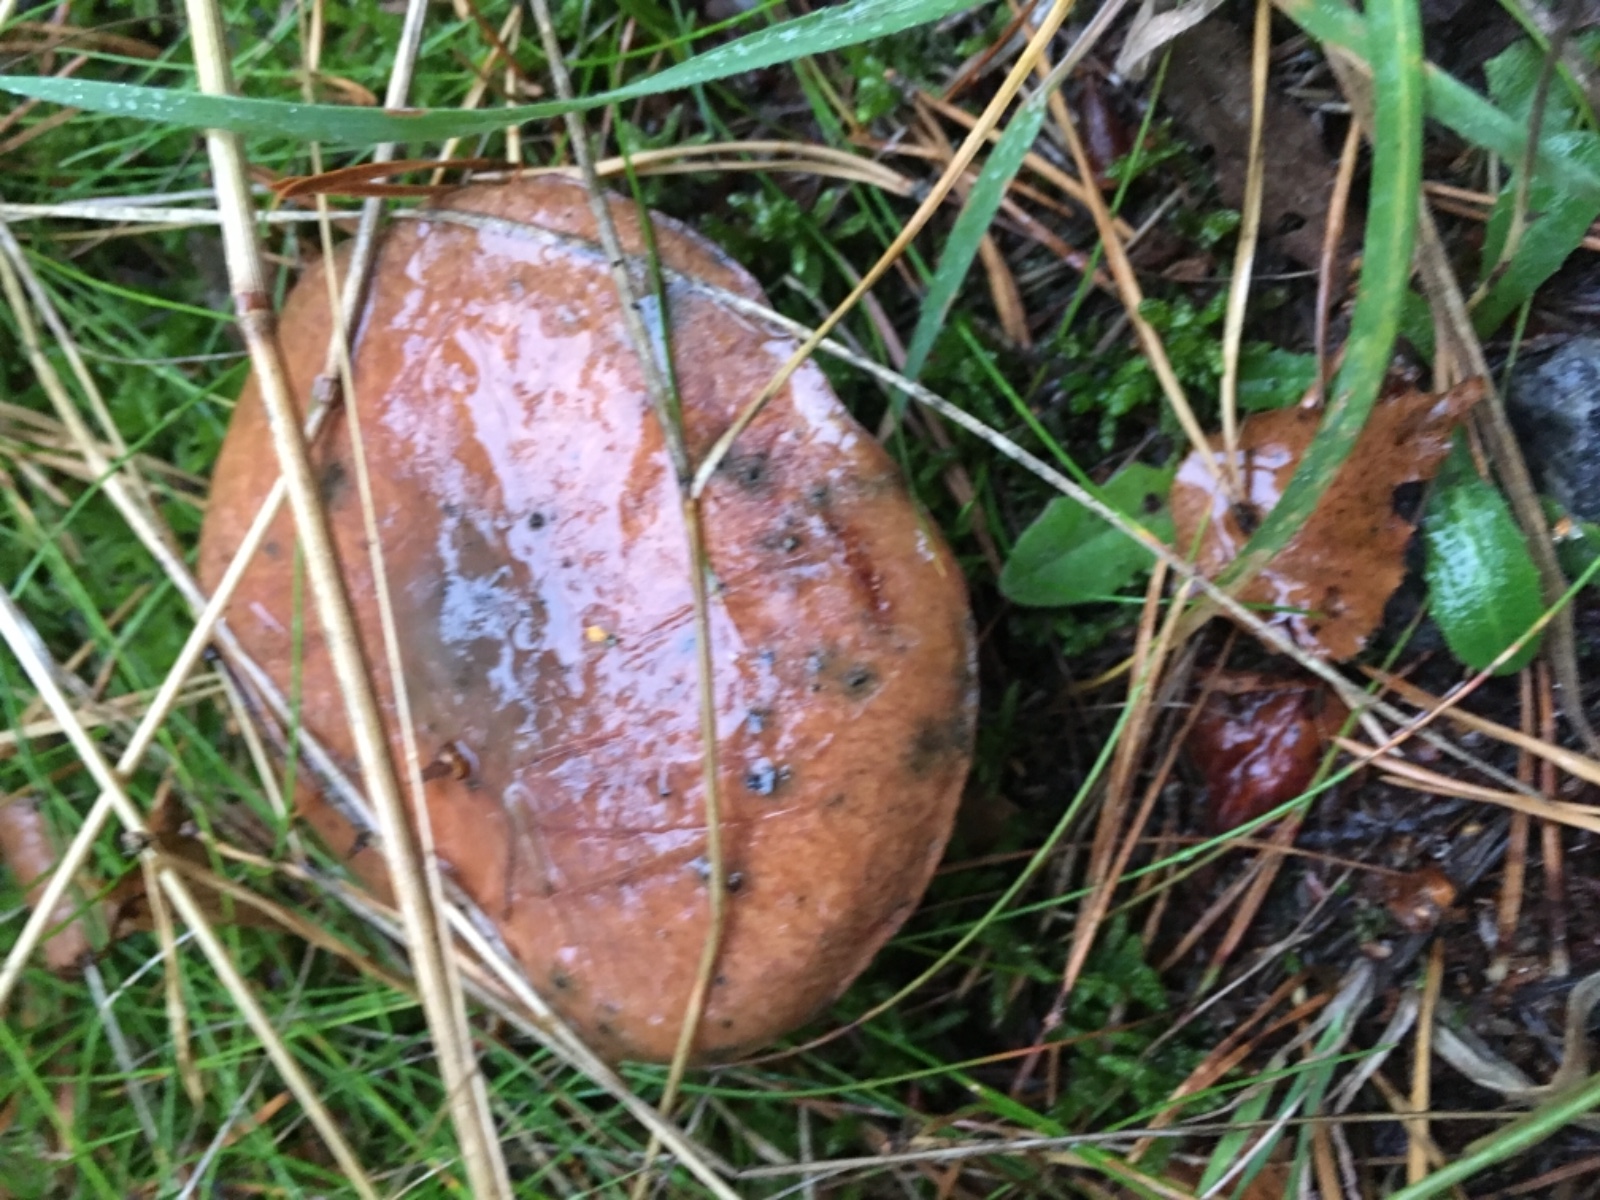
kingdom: Fungi
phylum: Basidiomycota
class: Agaricomycetes
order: Boletales
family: Suillaceae
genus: Suillus
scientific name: Suillus luteus
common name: brungul slimrørhat
